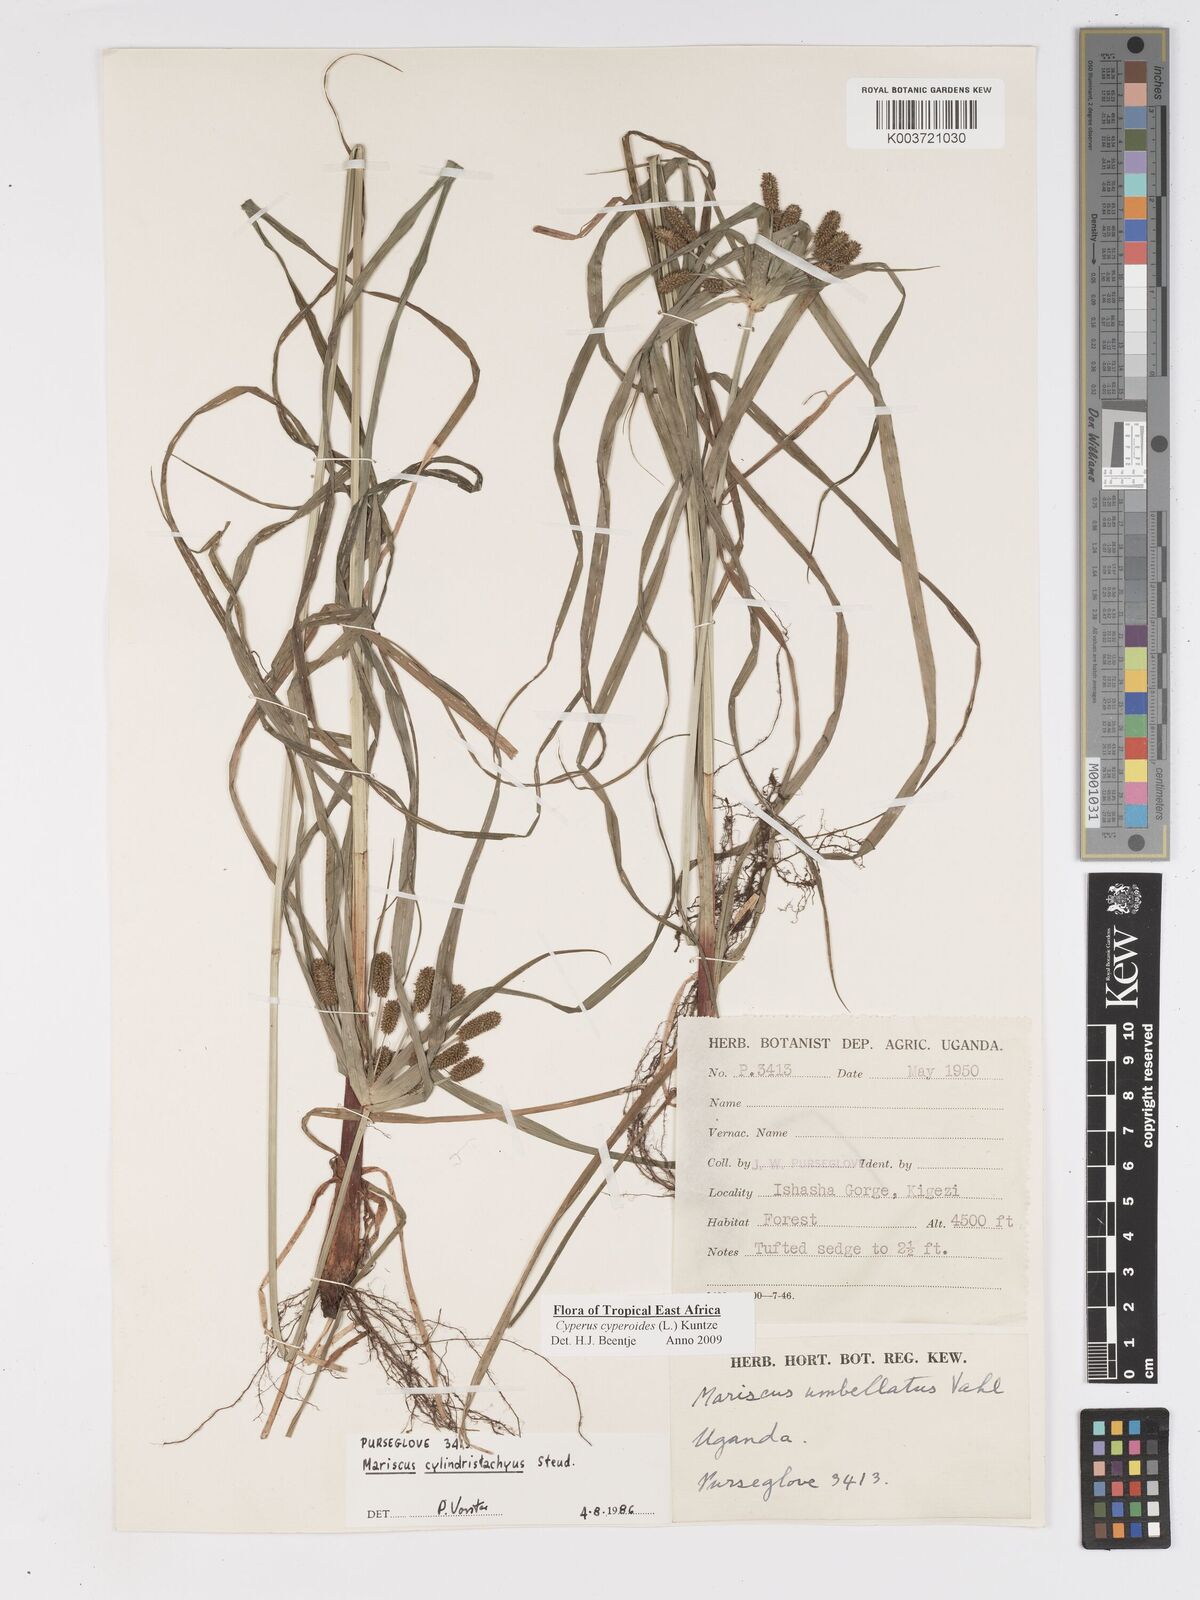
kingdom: Plantae
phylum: Tracheophyta
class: Liliopsida
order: Poales
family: Cyperaceae
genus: Cyperus
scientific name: Cyperus cyperoides
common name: Pacific island flat sedge
